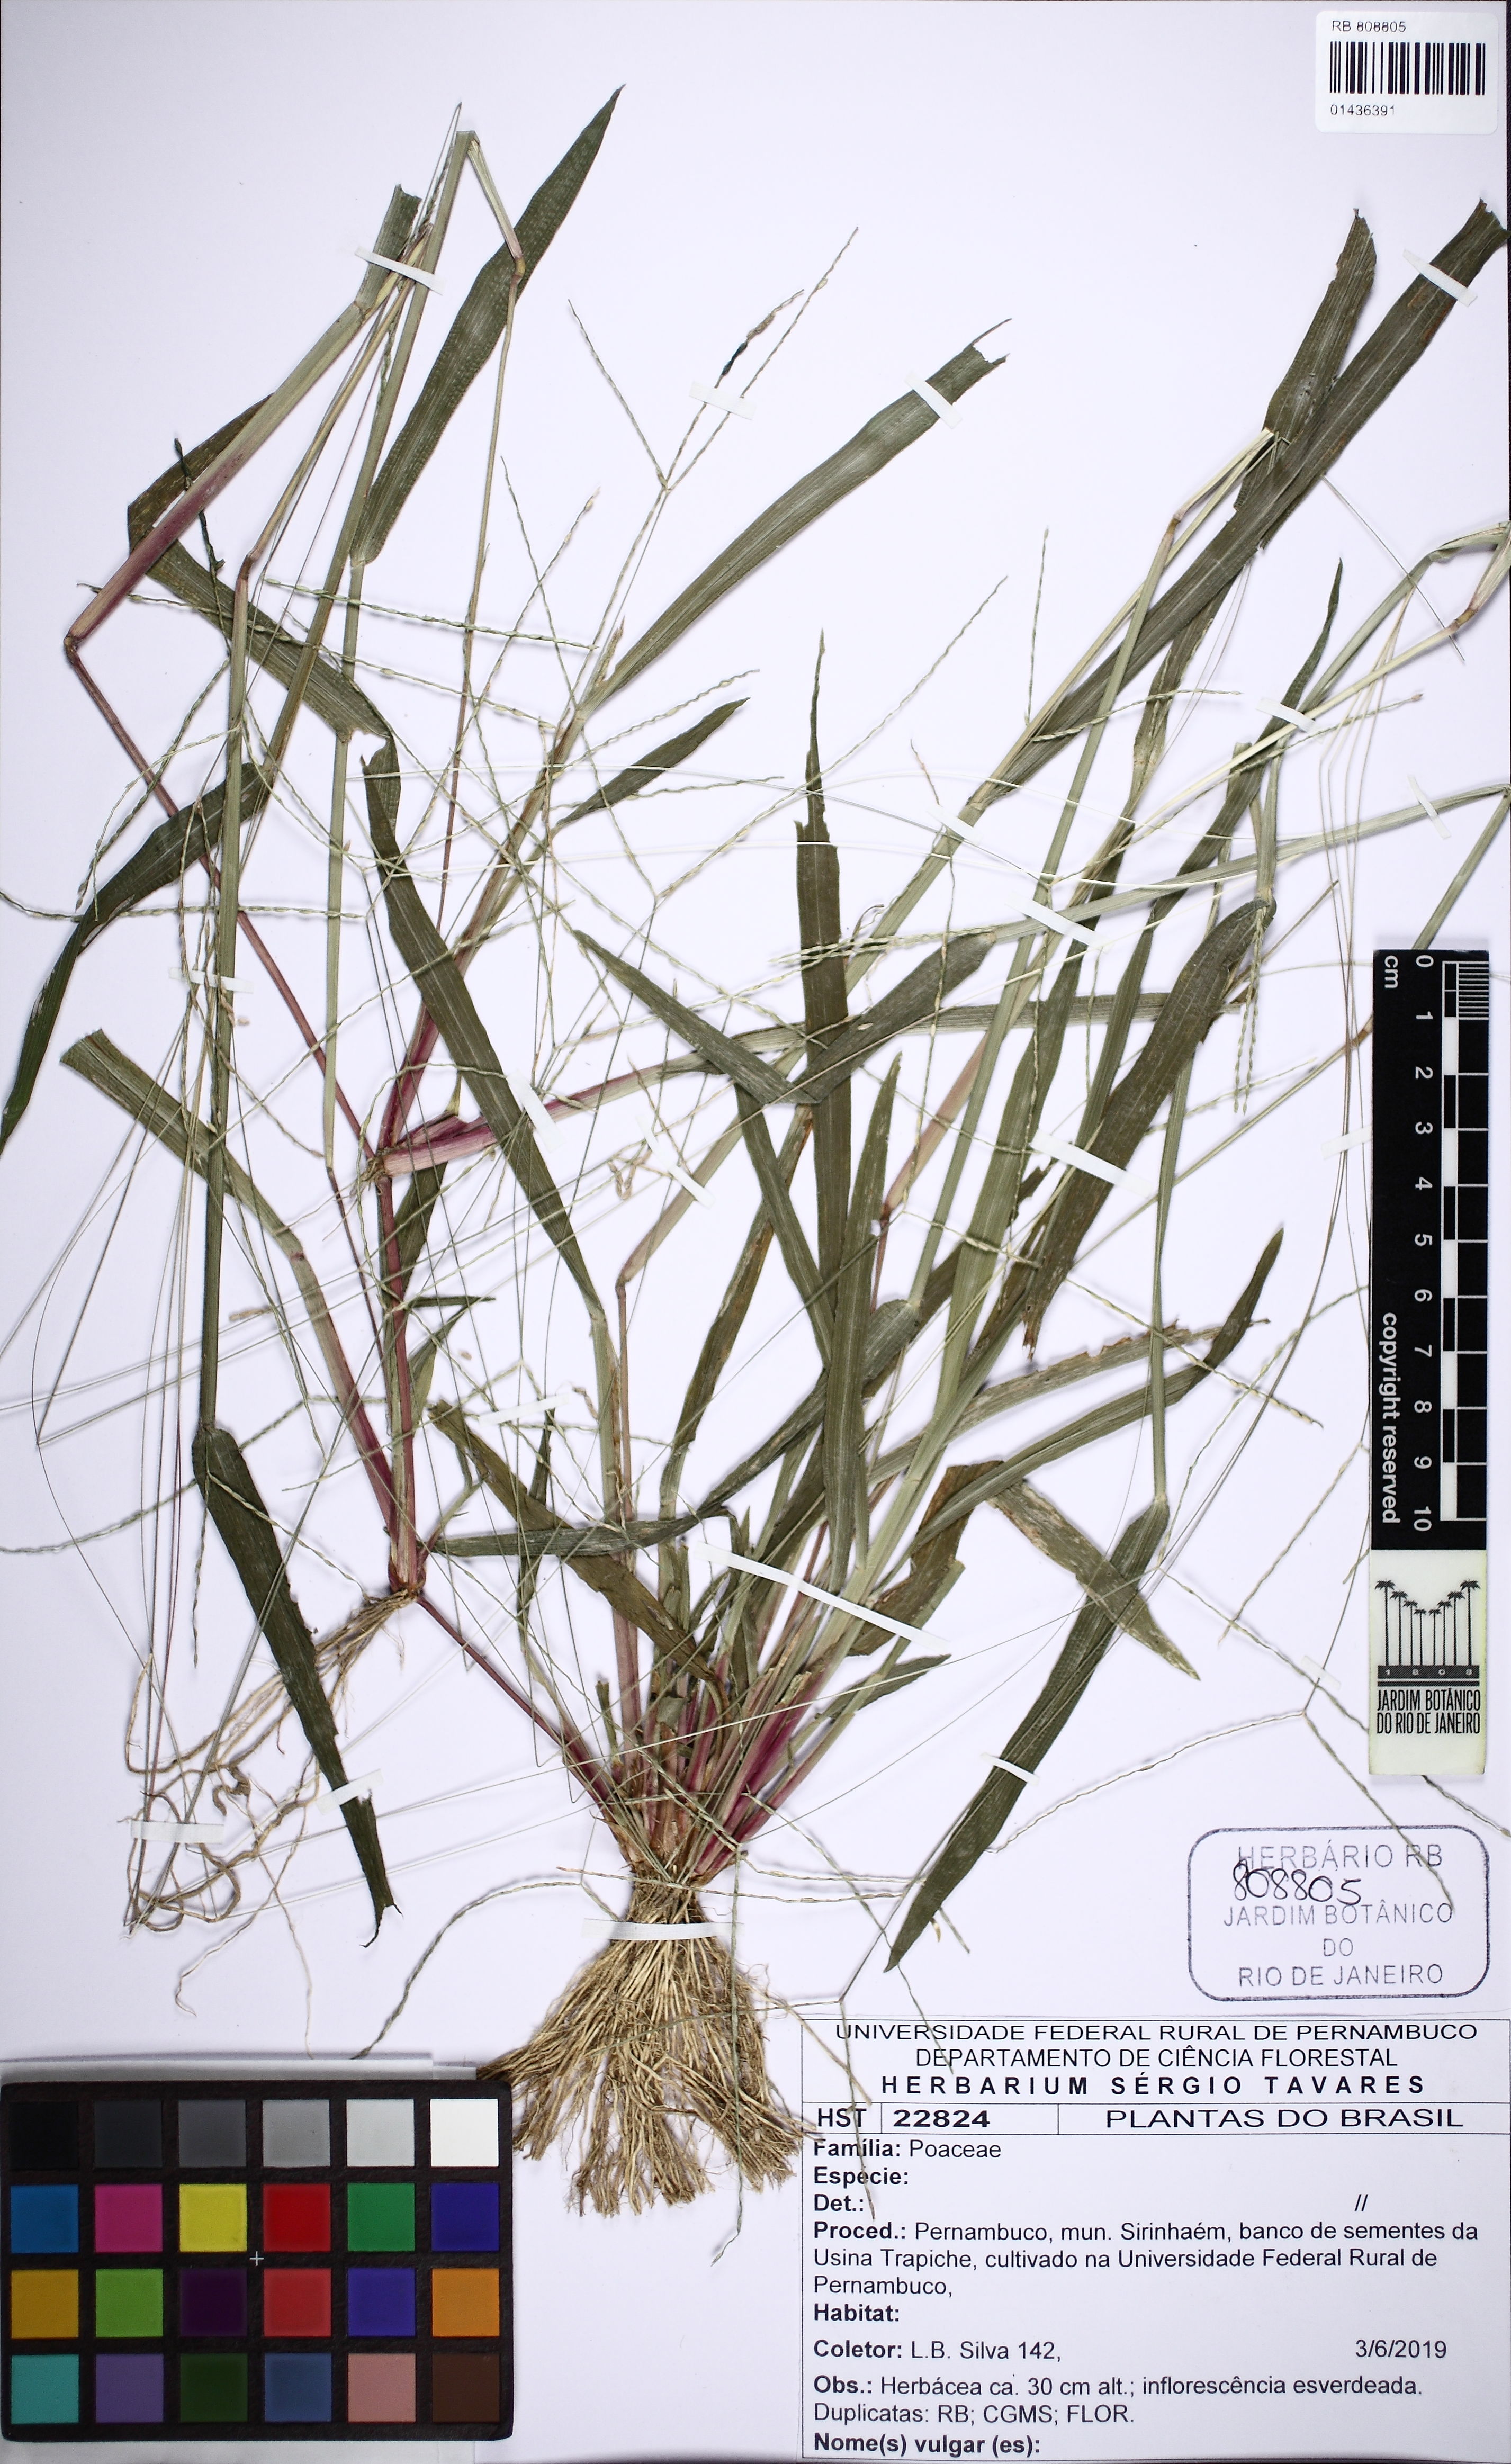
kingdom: Plantae
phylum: Tracheophyta
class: Liliopsida
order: Poales
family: Poaceae
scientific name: Poaceae
